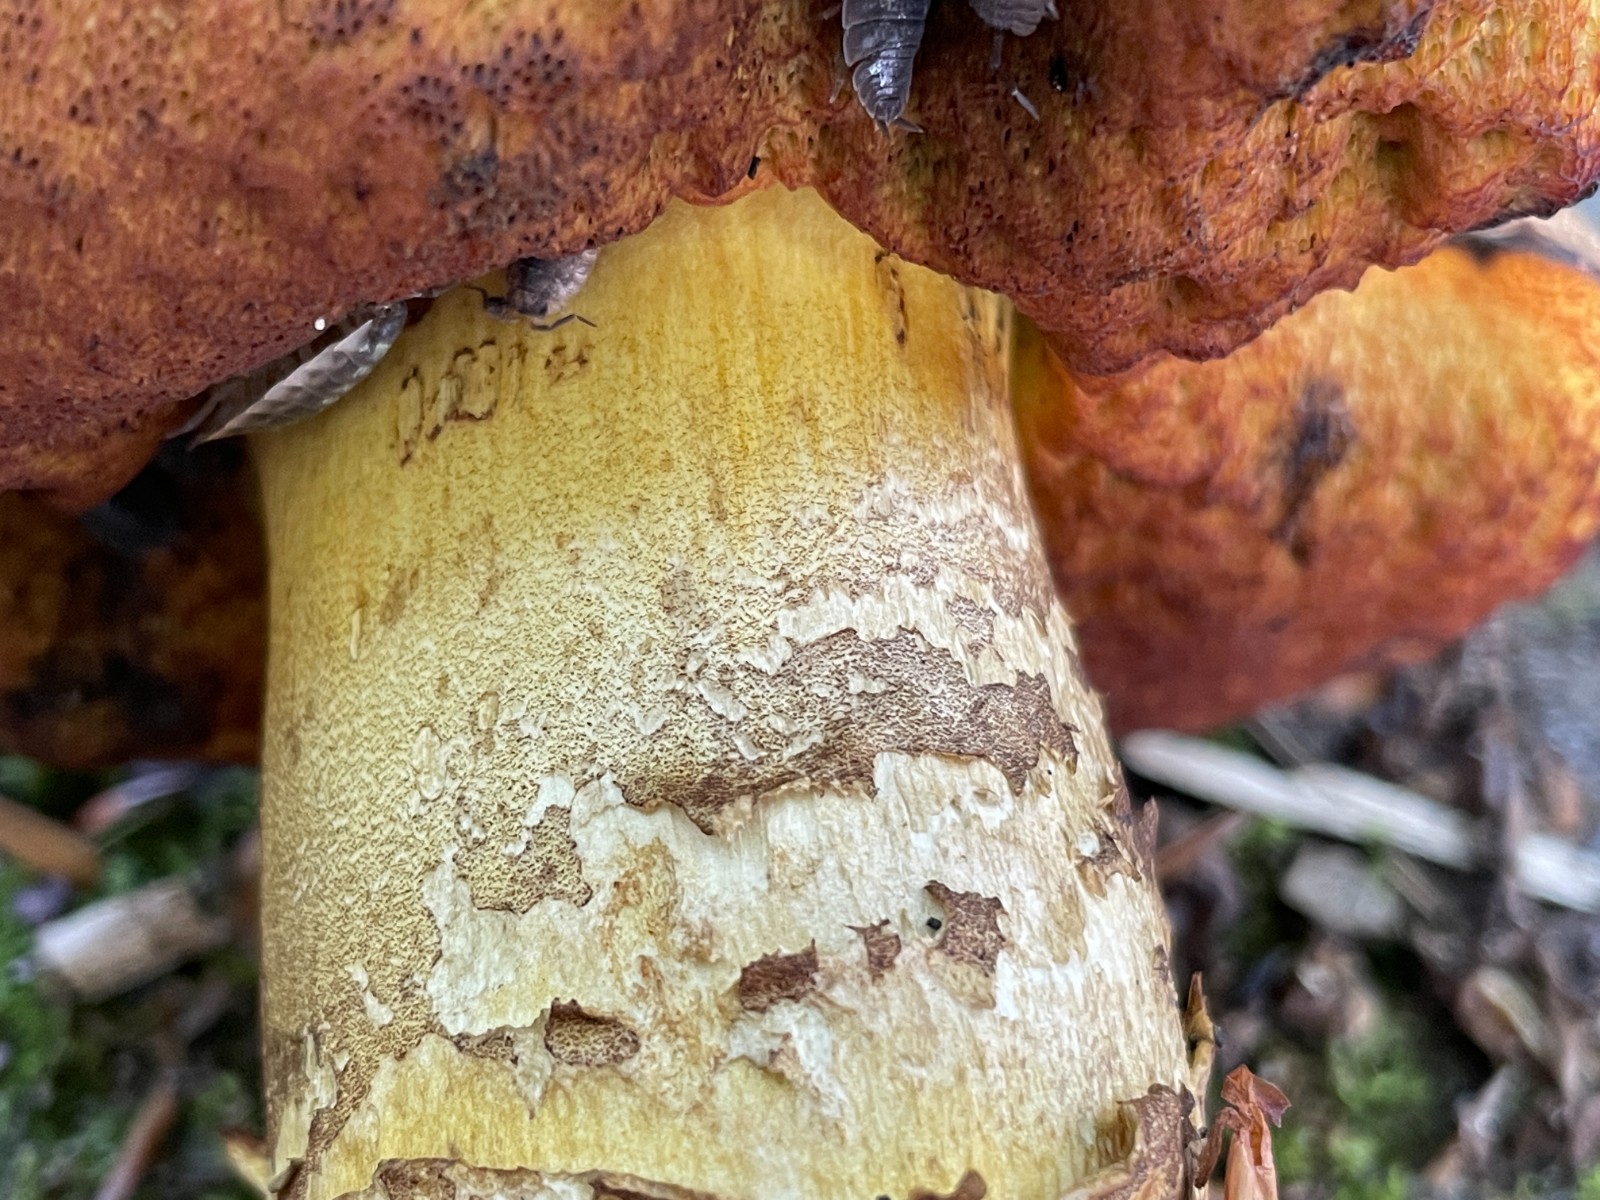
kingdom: Fungi
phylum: Basidiomycota
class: Agaricomycetes
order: Boletales
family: Boletaceae
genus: Neoboletus
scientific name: Neoboletus xanthopus
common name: finprikket indigorørhat
